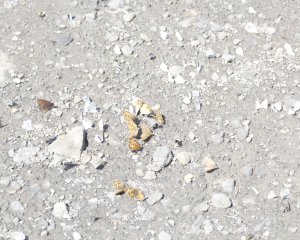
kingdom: Animalia
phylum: Arthropoda
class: Insecta
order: Lepidoptera
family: Nymphalidae
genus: Erebia
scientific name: Erebia epipsodea
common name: Common Alpine
